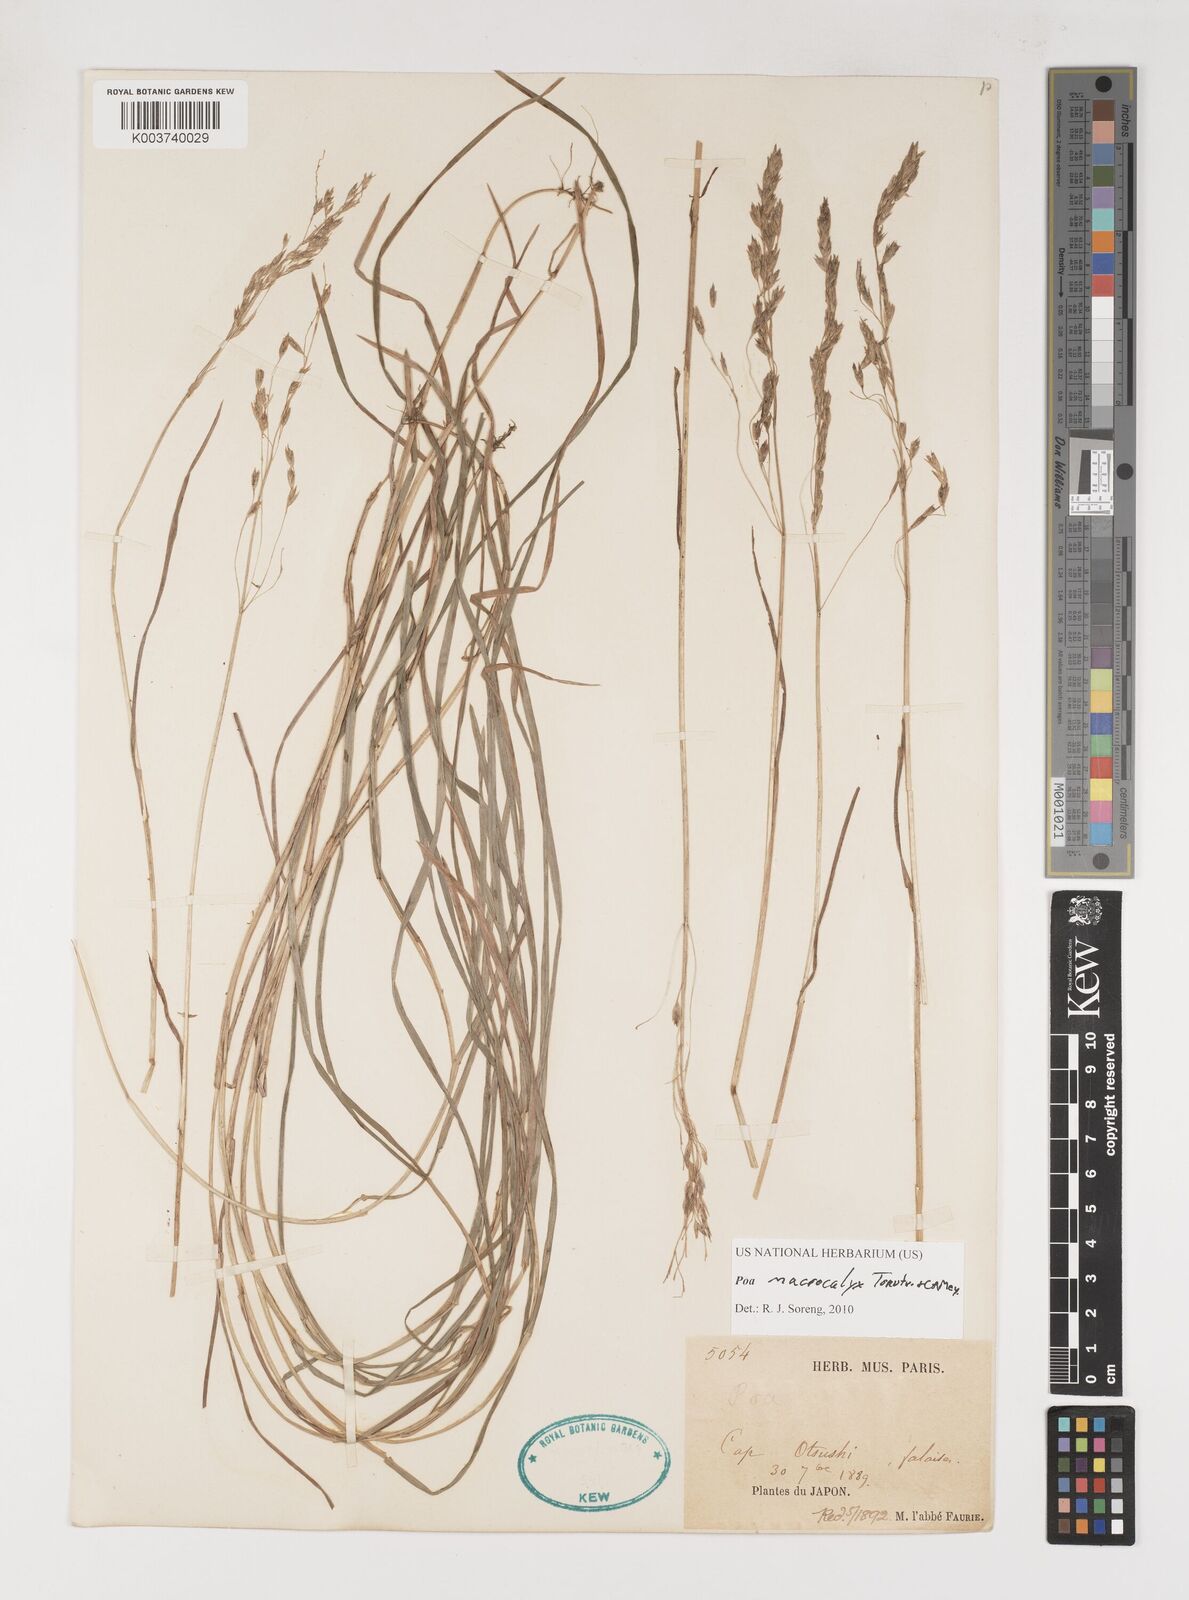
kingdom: Plantae
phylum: Tracheophyta
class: Liliopsida
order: Poales
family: Poaceae
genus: Poa
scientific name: Poa macrocalyx
